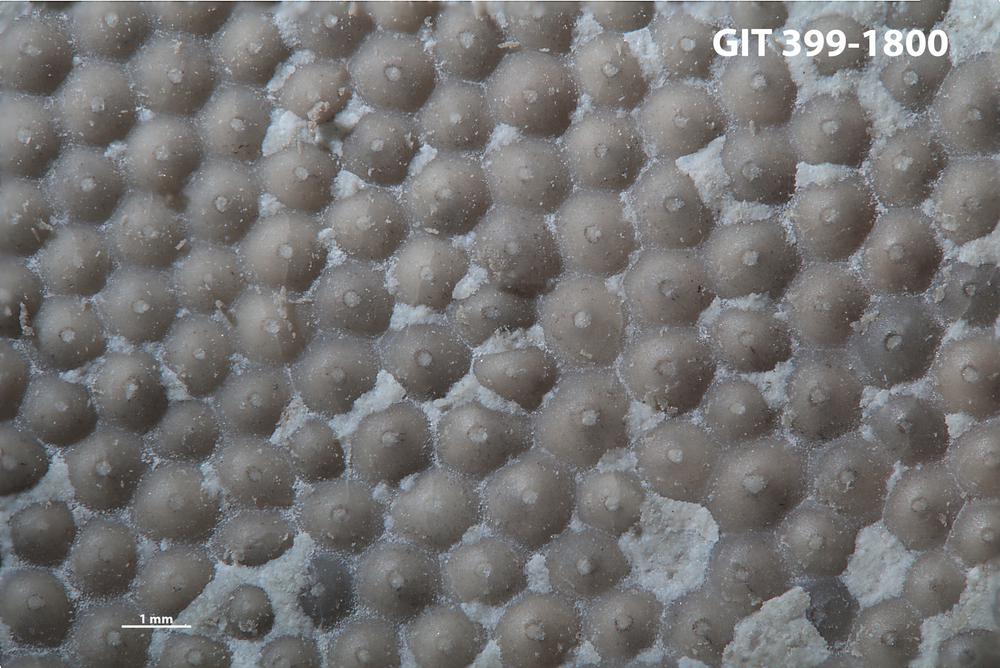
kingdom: Plantae
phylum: Chlorophyta
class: Ulvophyceae
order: Cyclocrinales
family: Cyclocrinaceae
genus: Mastopora
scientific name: Mastopora concava
